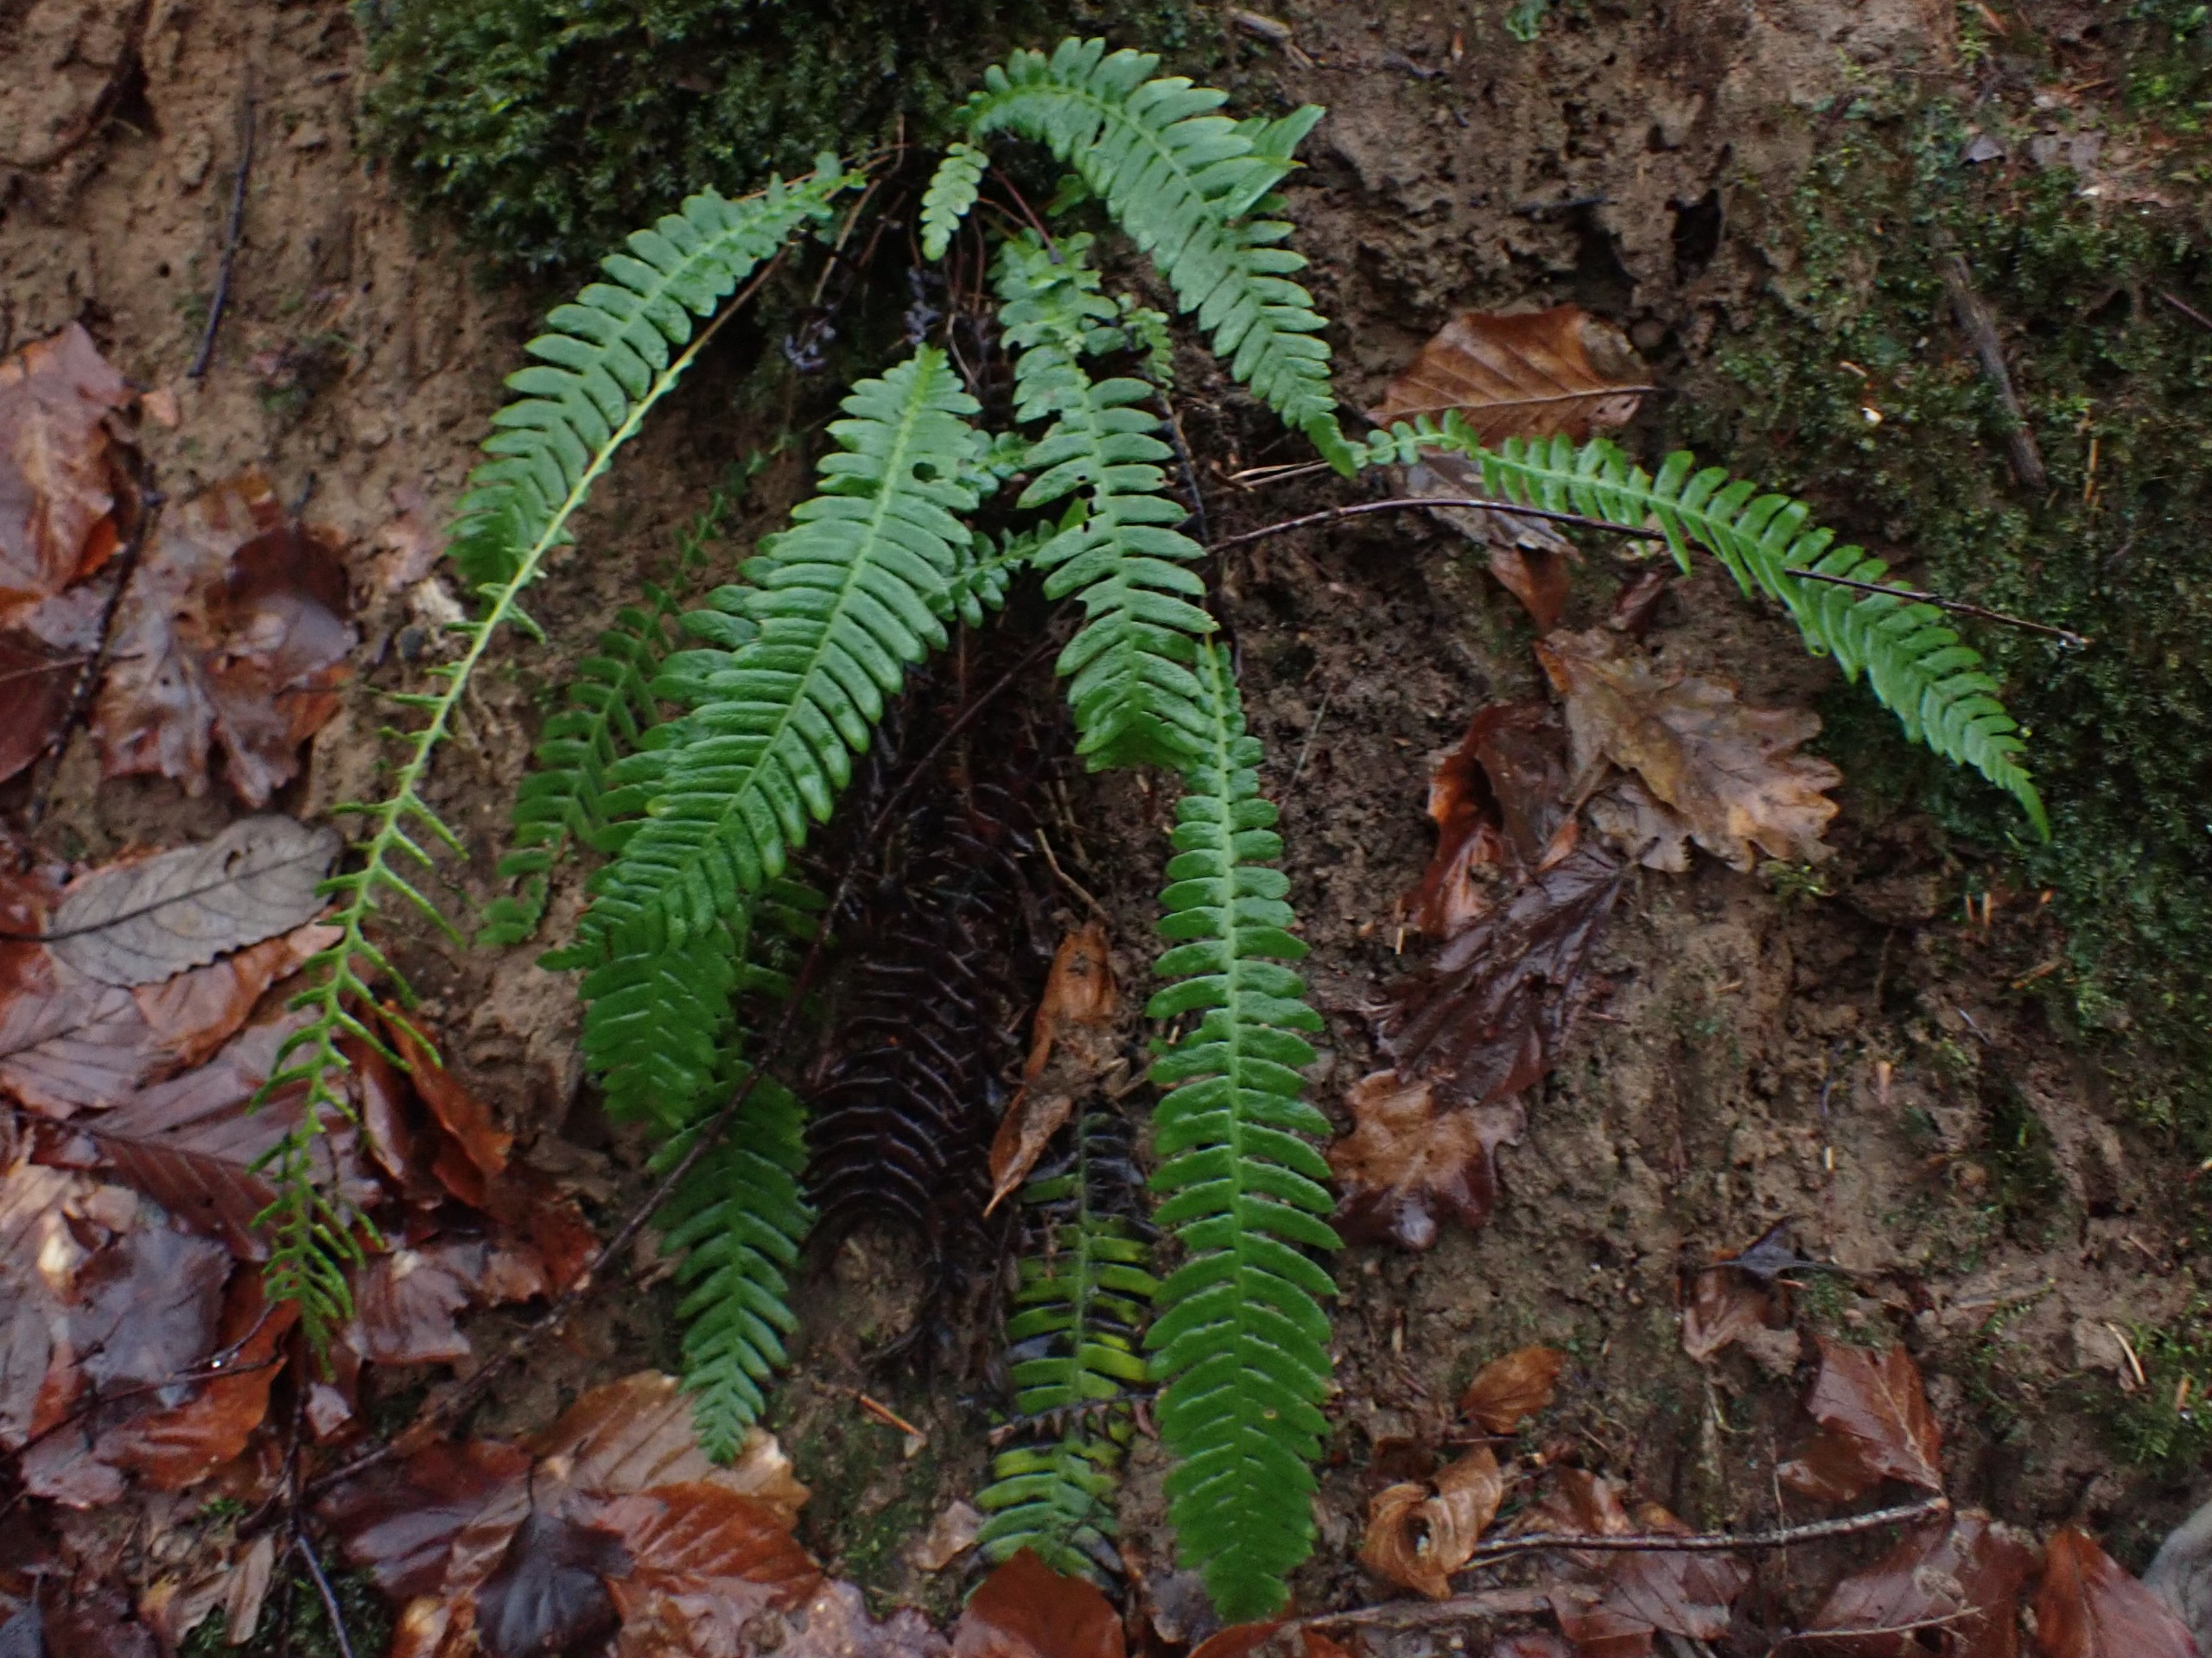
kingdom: Plantae
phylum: Tracheophyta
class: Polypodiopsida
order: Polypodiales
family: Blechnaceae
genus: Struthiopteris
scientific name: Struthiopteris spicant
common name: Kambregne
